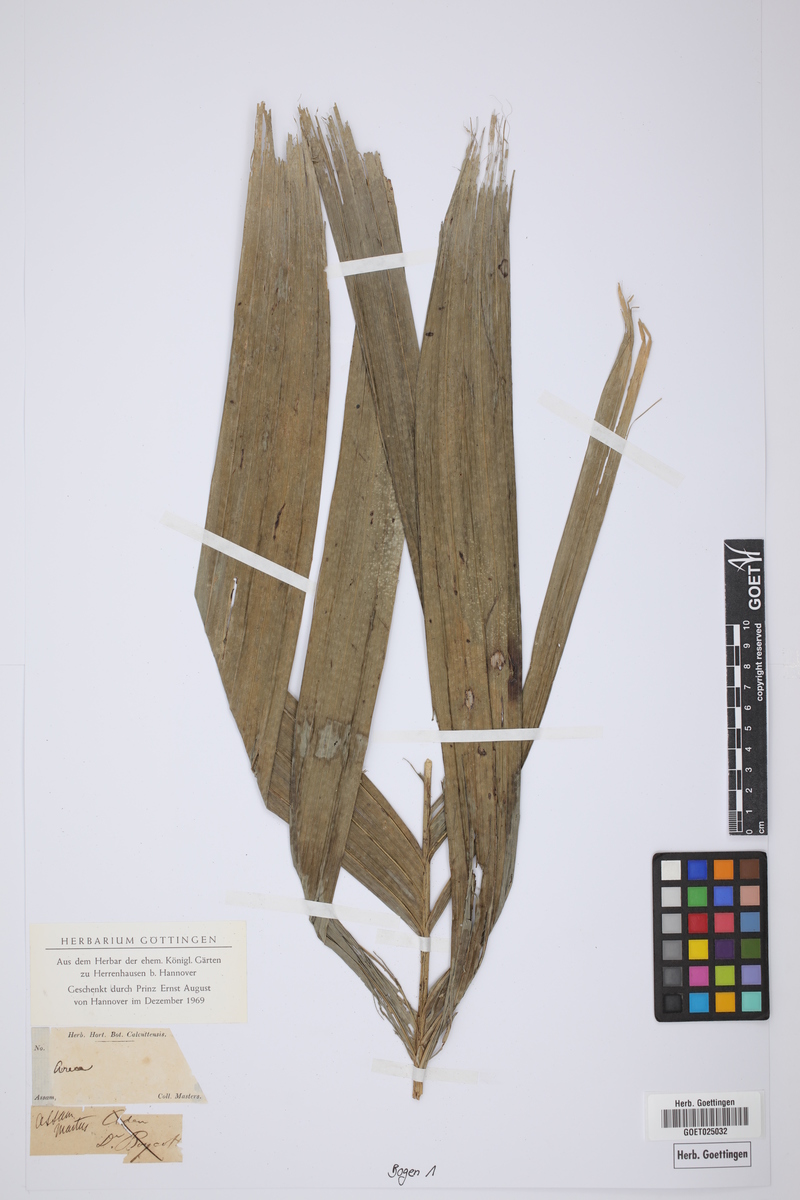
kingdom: Plantae
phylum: Tracheophyta
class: Liliopsida
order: Arecales
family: Arecaceae
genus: Areca
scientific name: Areca
